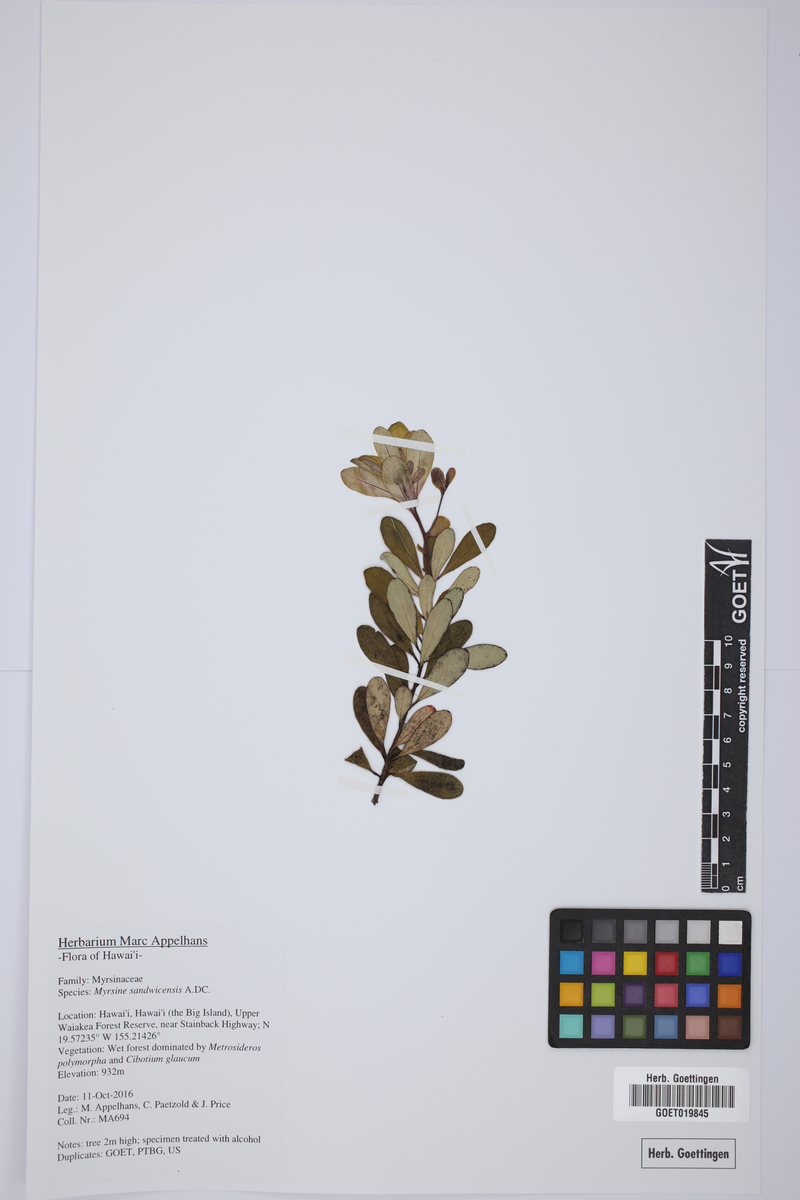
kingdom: Plantae
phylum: Tracheophyta
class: Magnoliopsida
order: Ericales
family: Primulaceae
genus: Myrsine
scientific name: Myrsine sandwicensis
